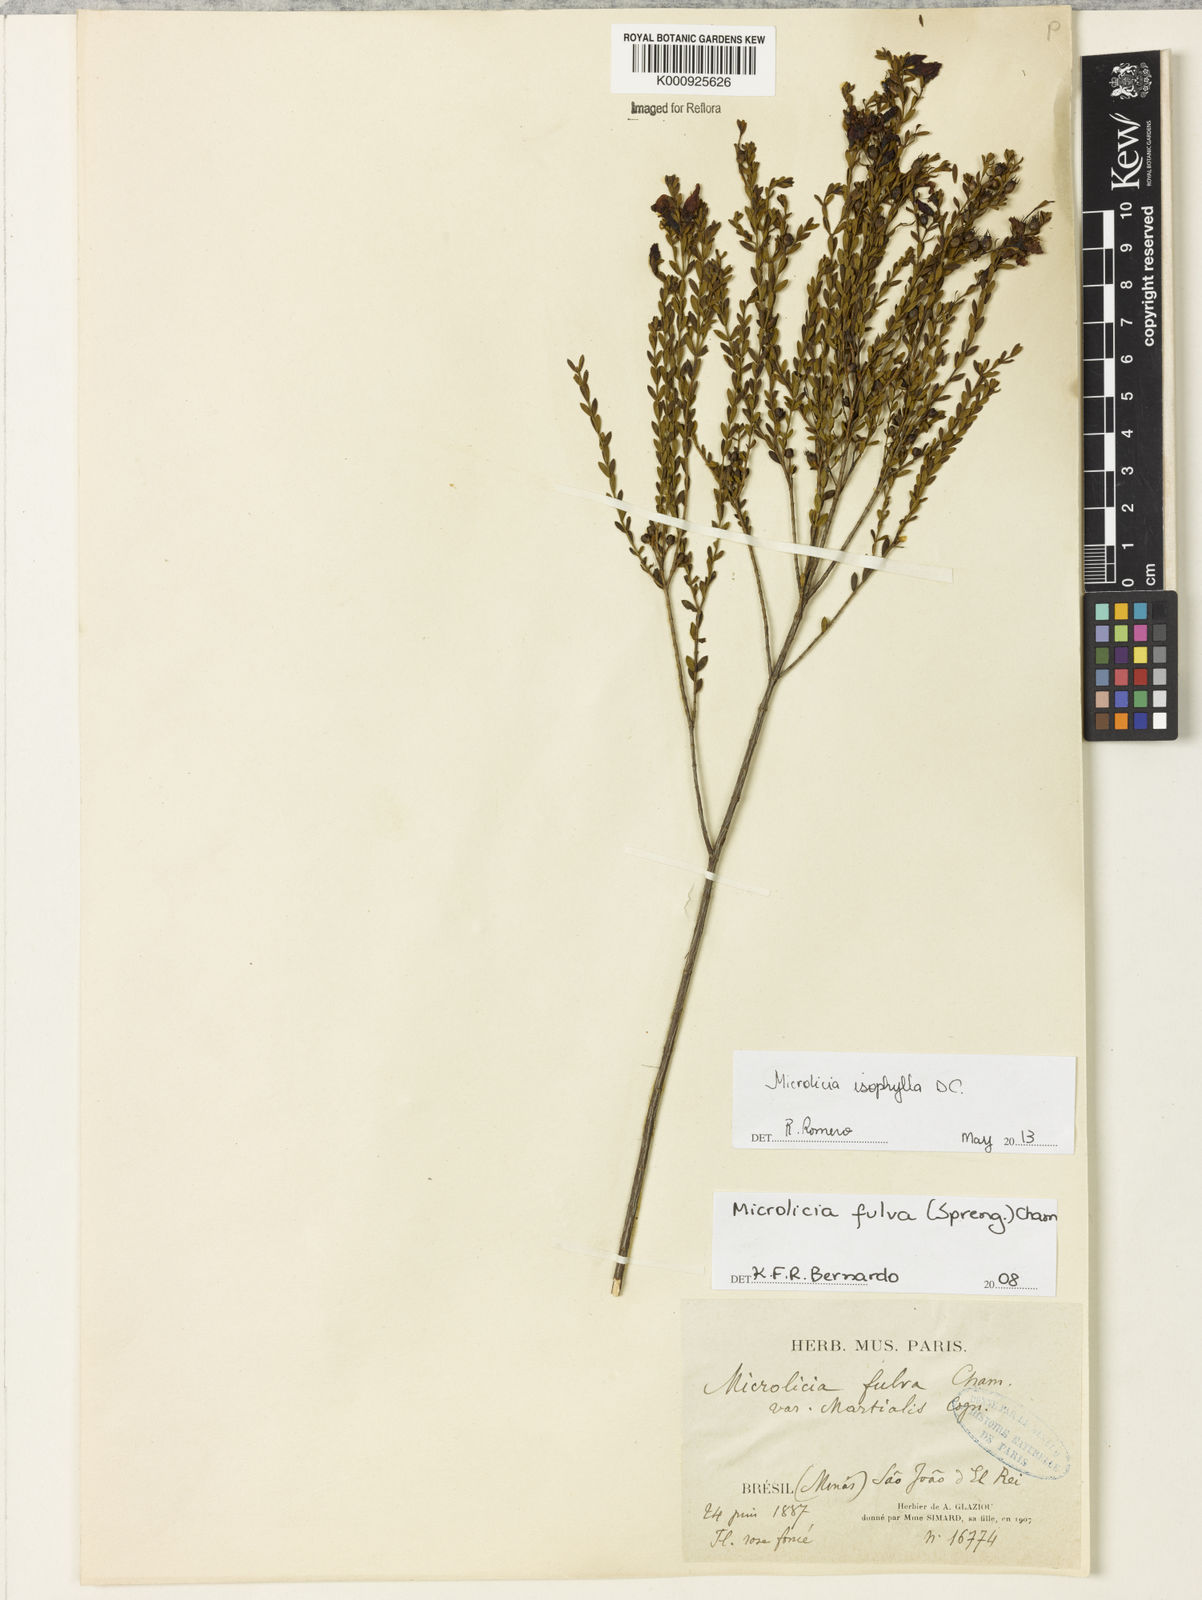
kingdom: Plantae
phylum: Tracheophyta
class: Magnoliopsida
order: Myrtales
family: Melastomataceae
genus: Microlicia
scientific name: Microlicia isophylla
